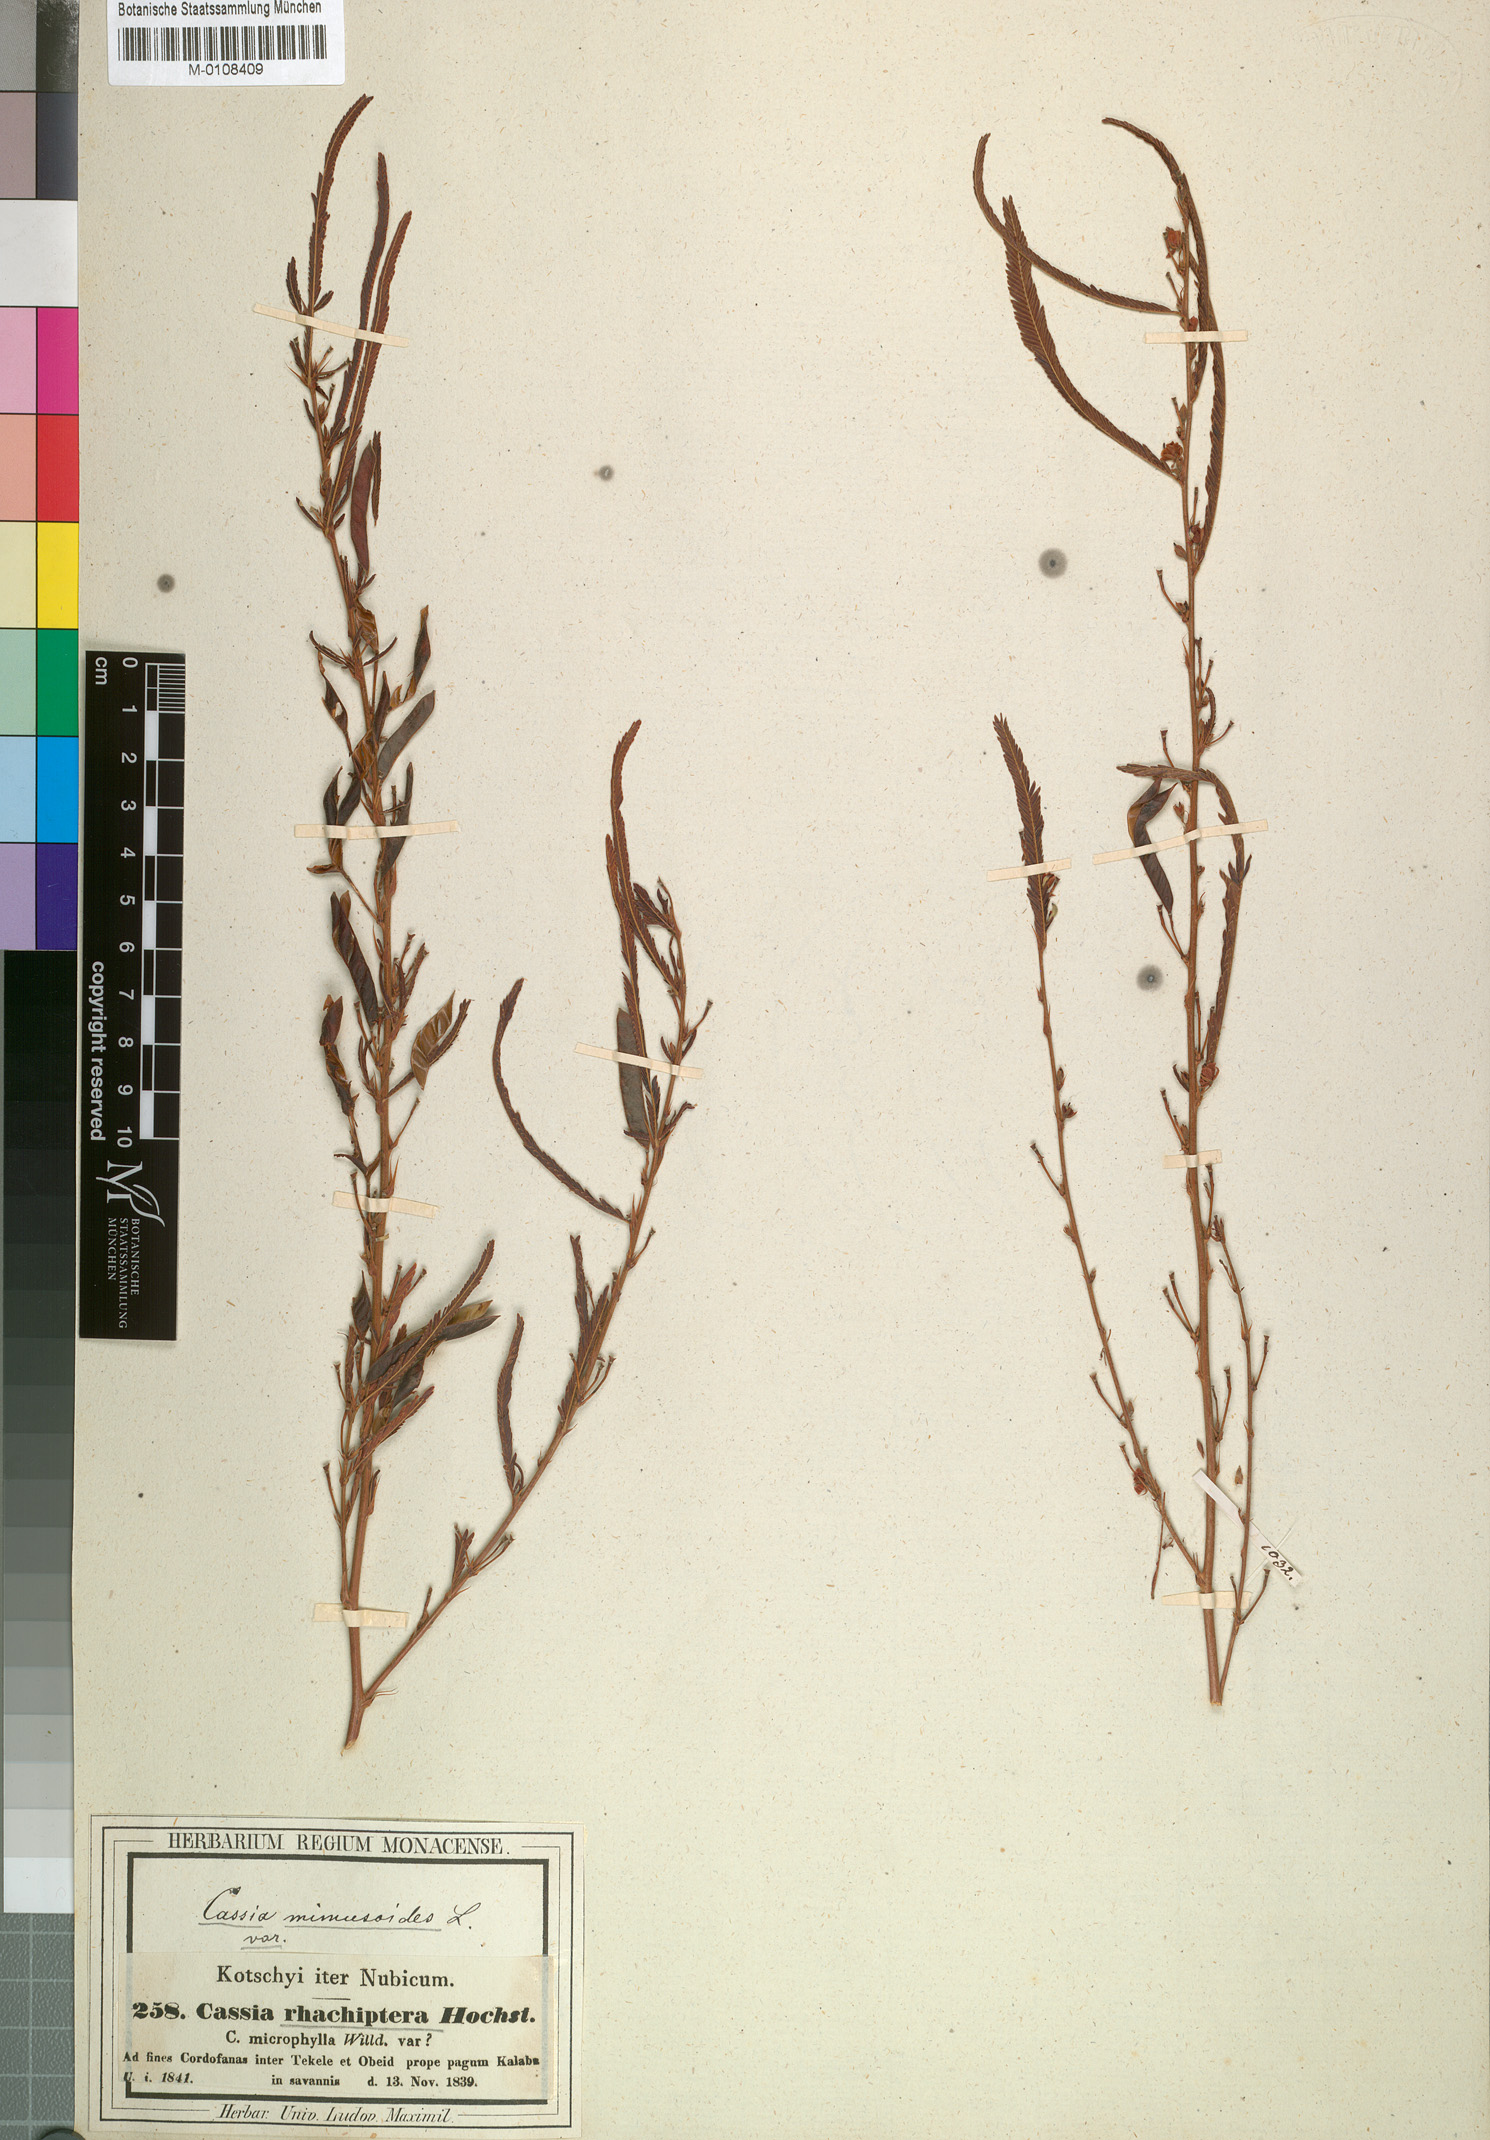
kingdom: Plantae
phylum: Tracheophyta
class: Magnoliopsida
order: Fabales
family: Fabaceae
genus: Chamaecrista
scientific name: Chamaecrista mimosoides
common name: Fish-bone cassia
